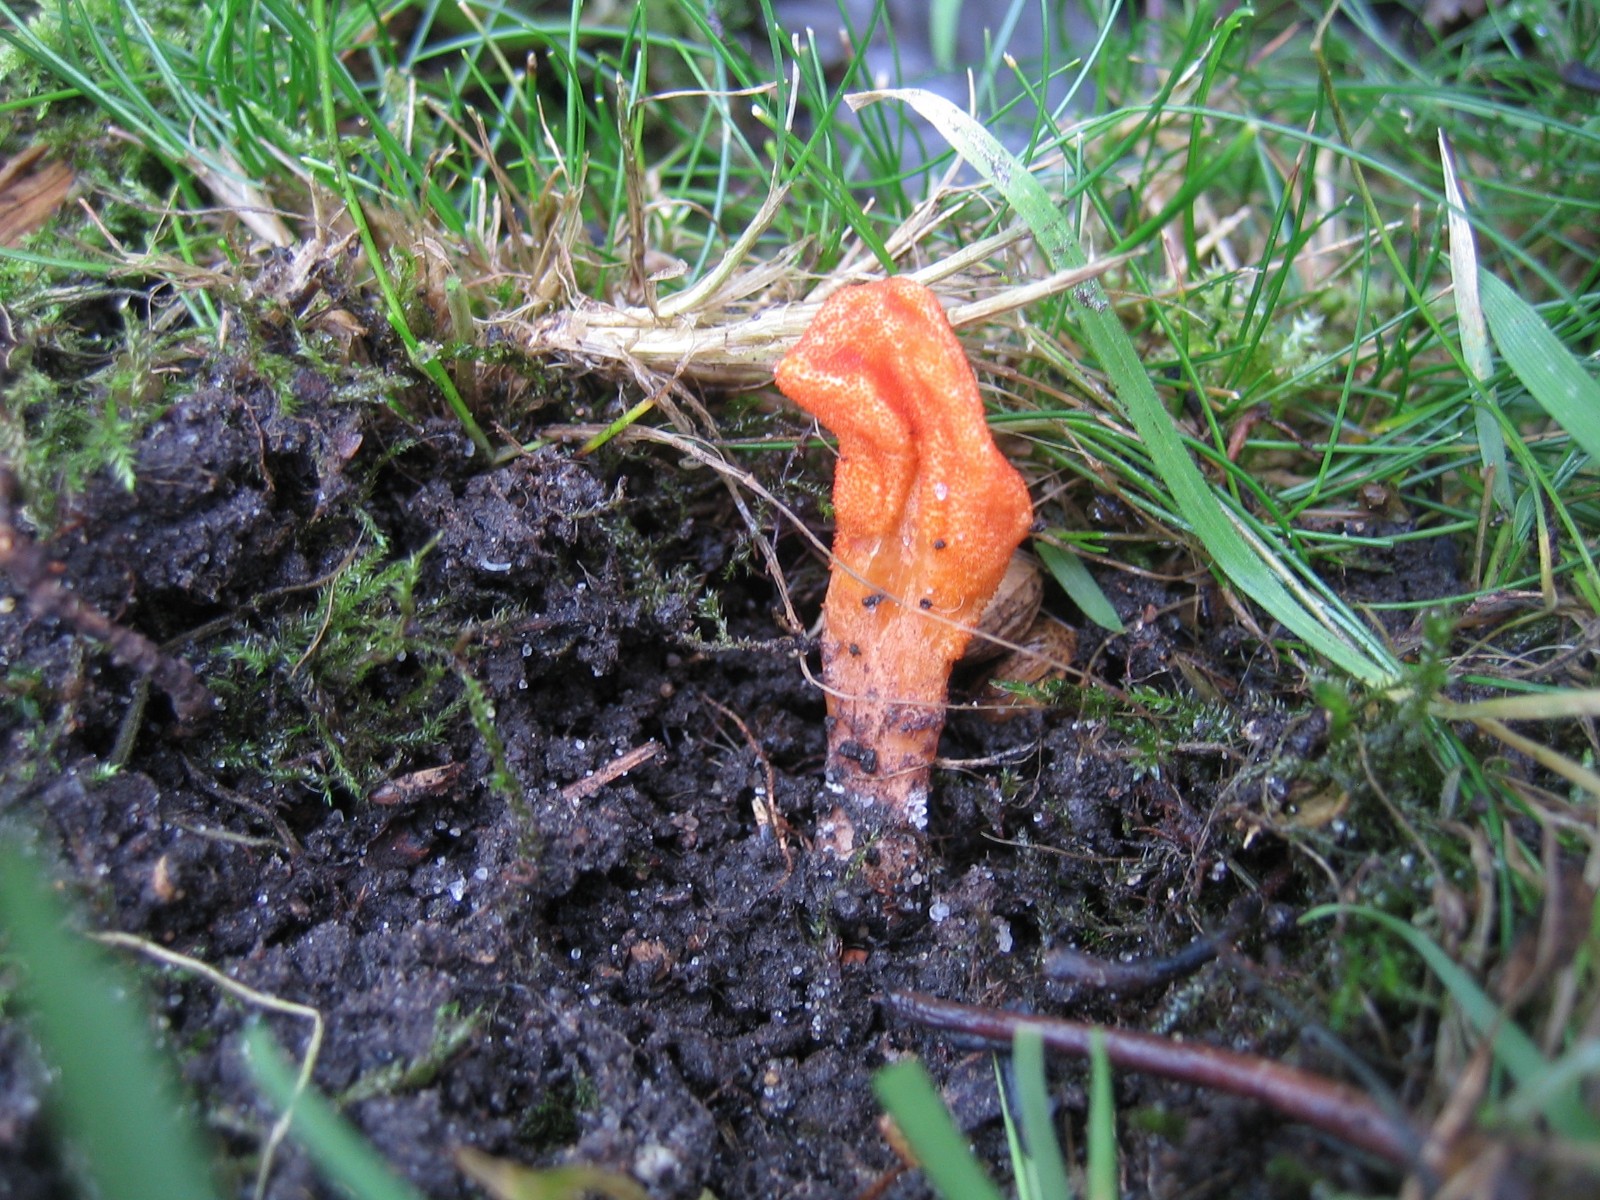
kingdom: Fungi
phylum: Ascomycota
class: Sordariomycetes
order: Hypocreales
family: Cordycipitaceae
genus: Cordyceps
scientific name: Cordyceps militaris
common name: puppe-snyltekølle
